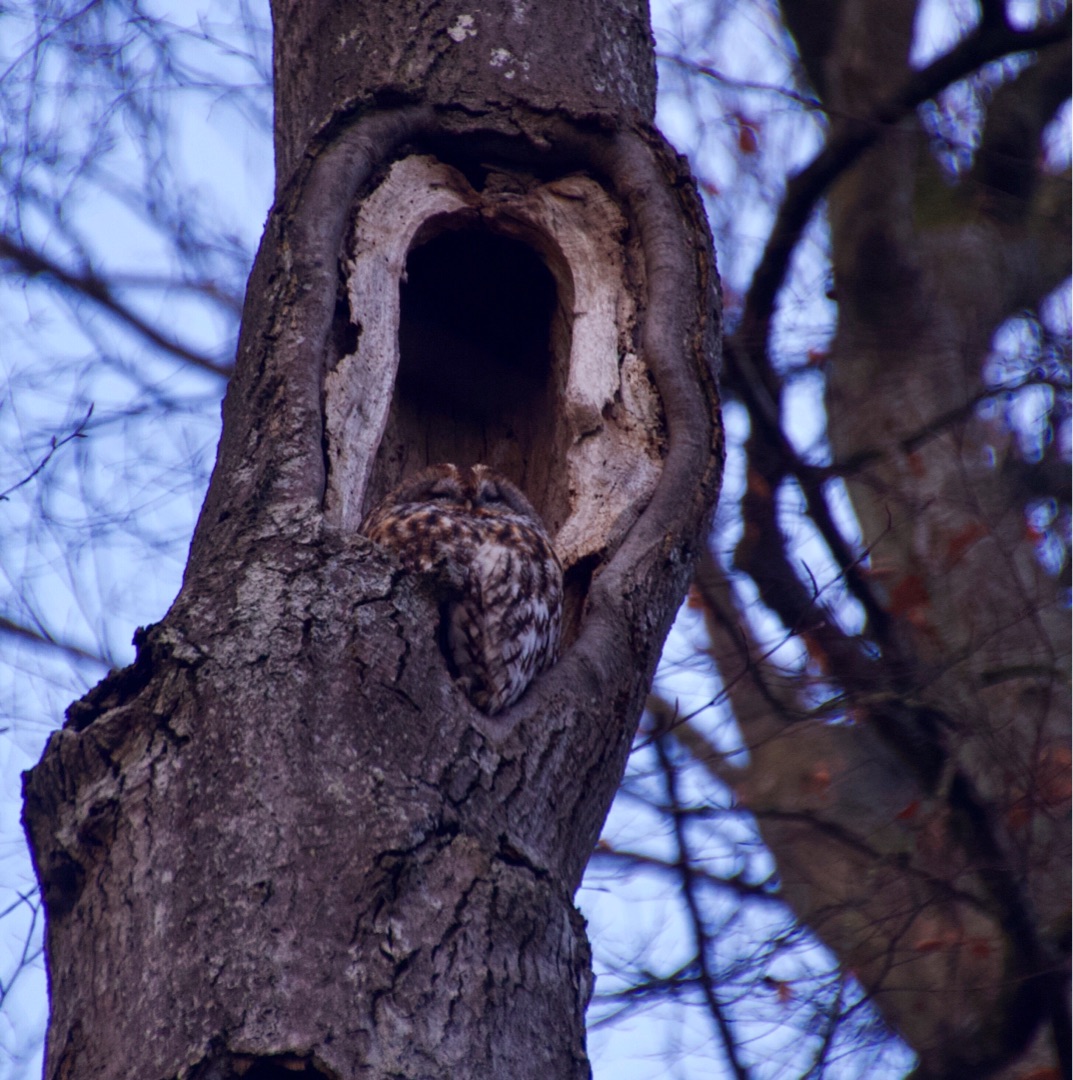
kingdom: Animalia
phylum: Chordata
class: Aves
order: Strigiformes
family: Strigidae
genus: Strix
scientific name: Strix aluco
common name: Natugle
